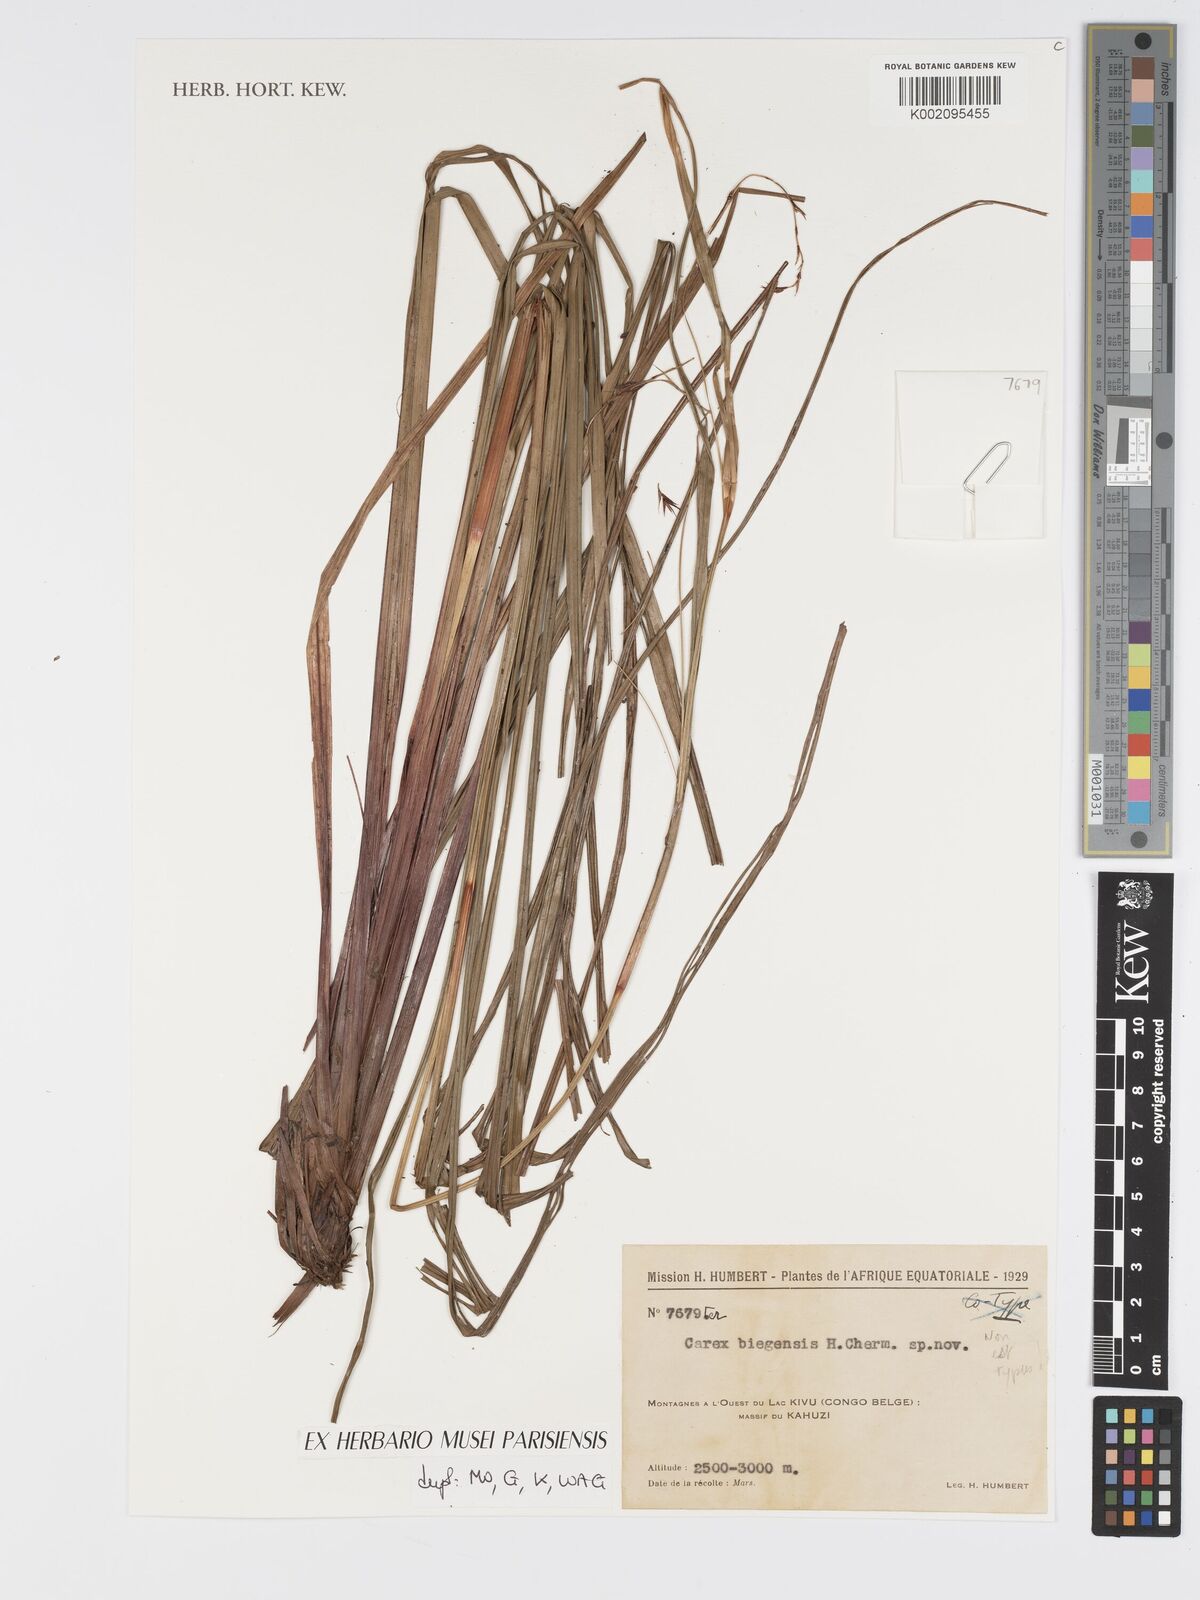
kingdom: Plantae
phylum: Tracheophyta
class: Liliopsida
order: Poales
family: Cyperaceae
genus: Carex
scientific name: Carex biegensis
